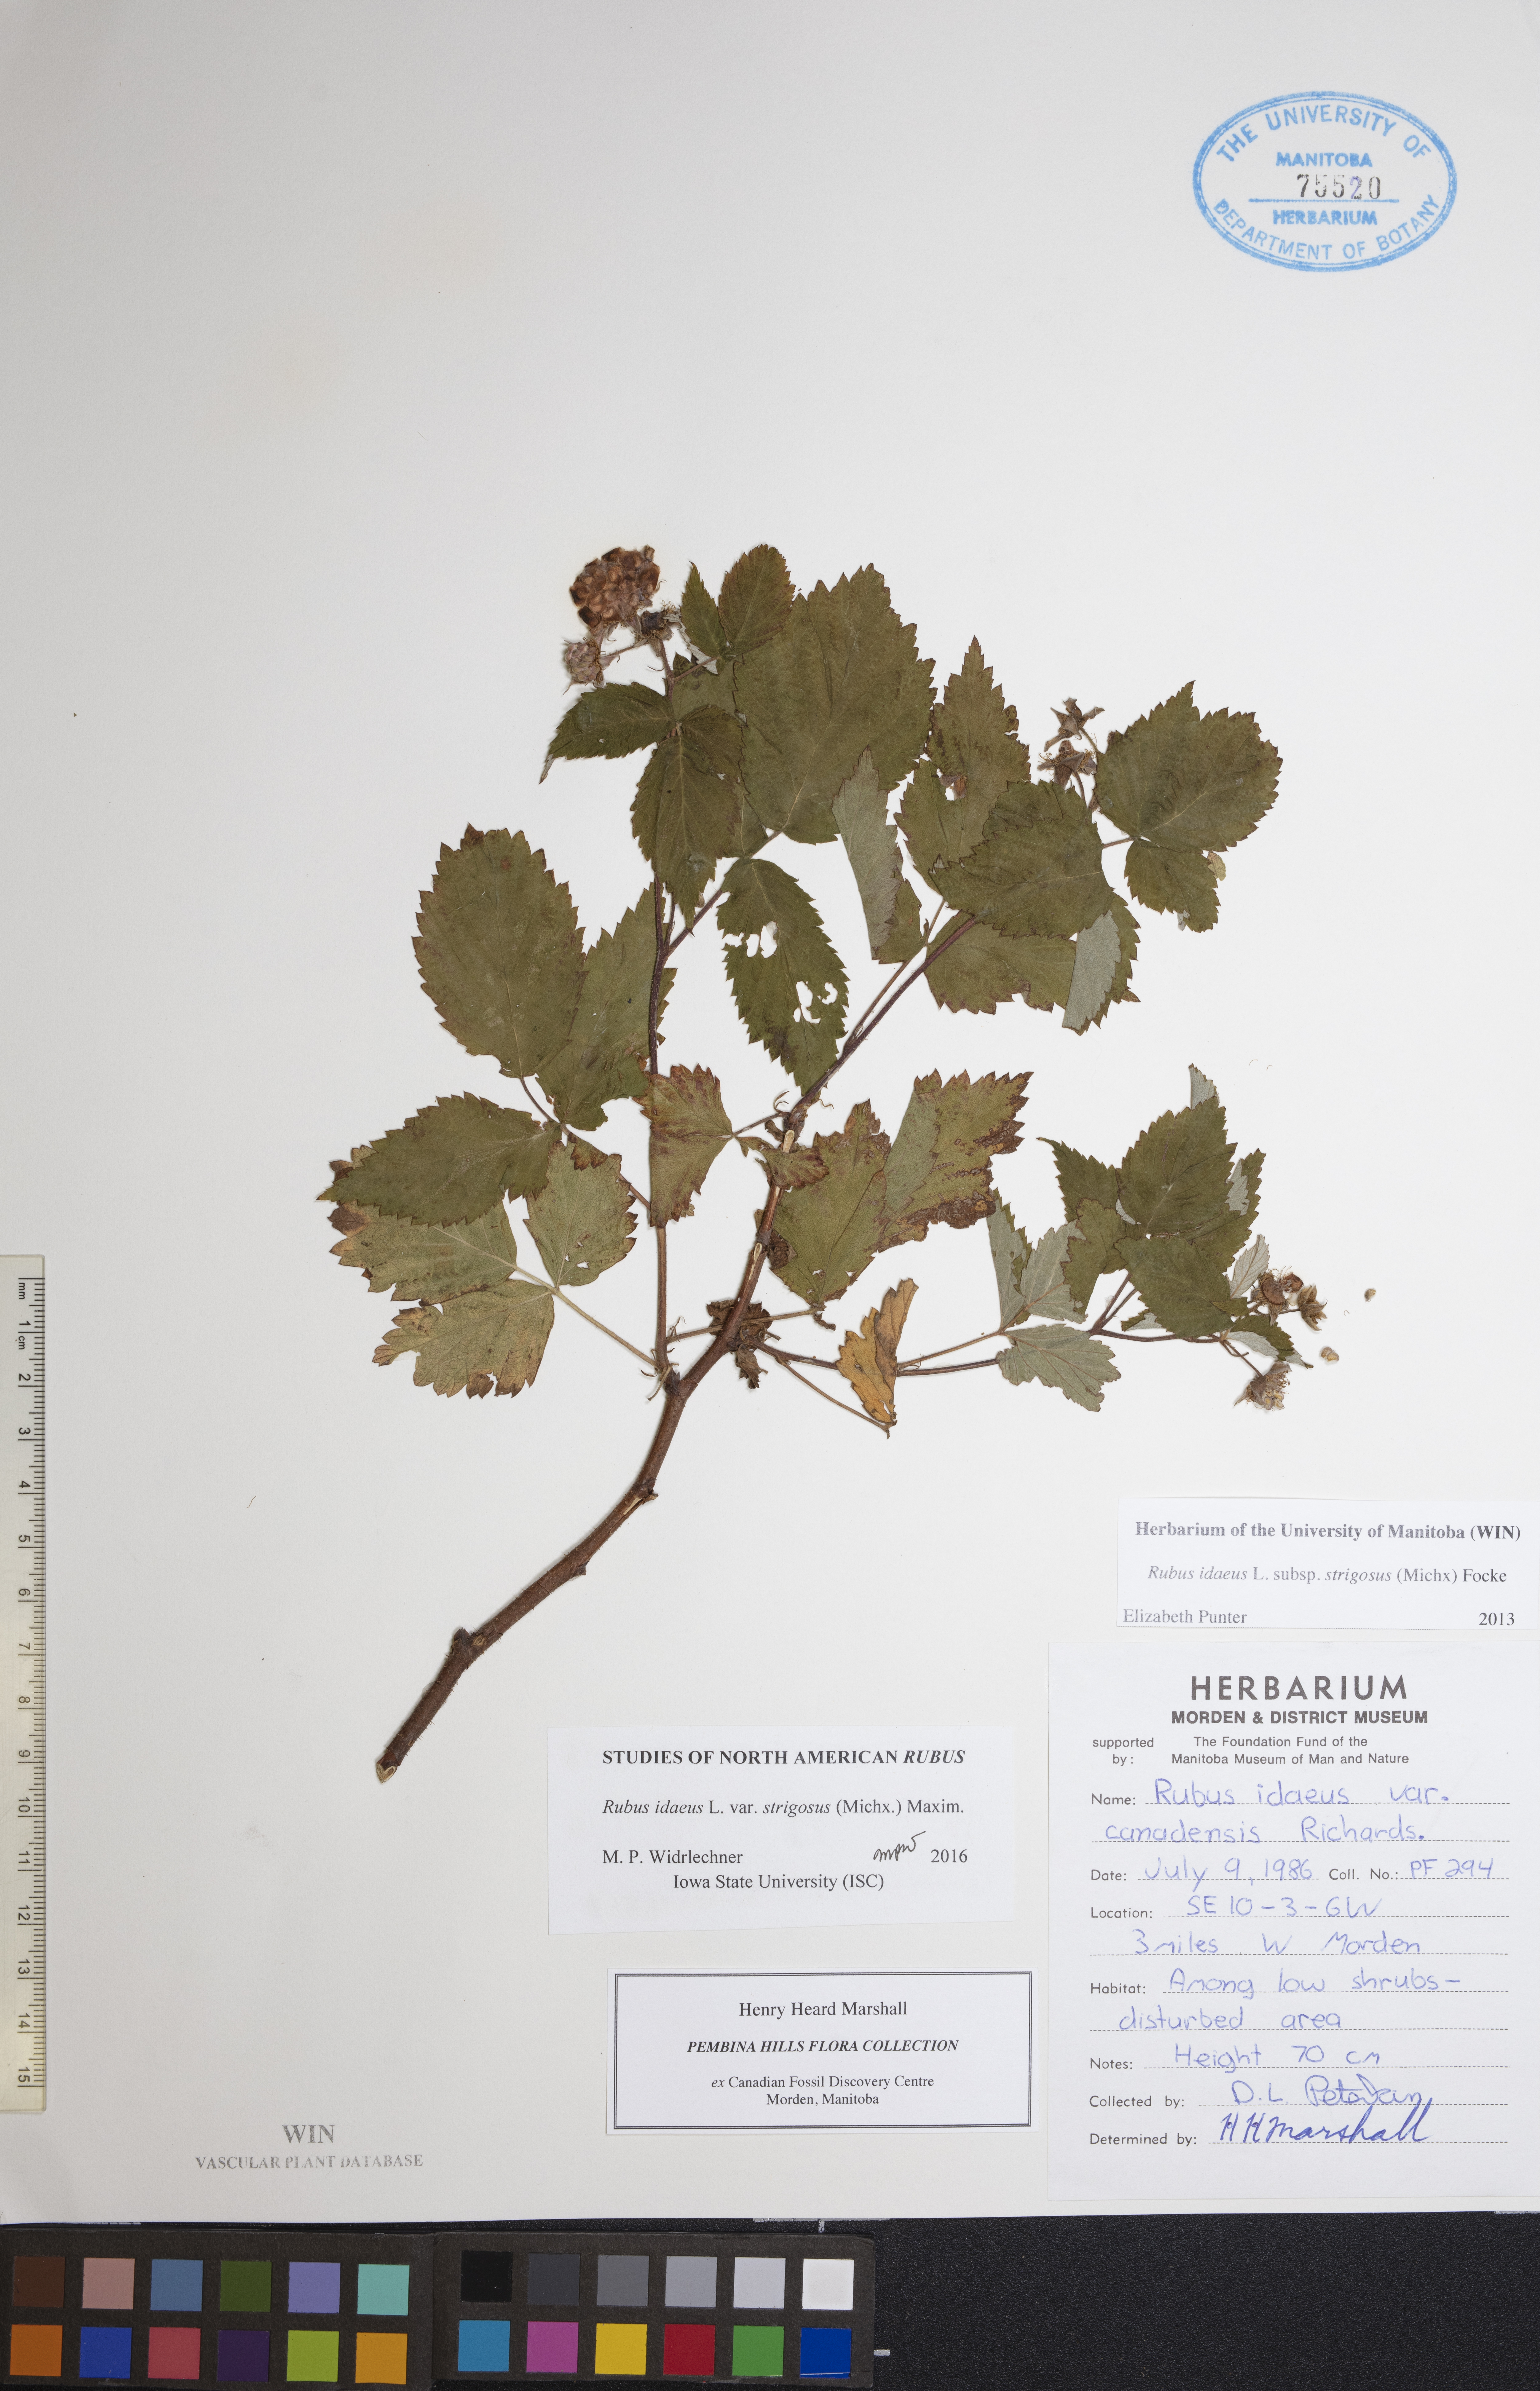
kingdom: Plantae
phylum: Tracheophyta
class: Magnoliopsida
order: Rosales
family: Rosaceae
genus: Rubus
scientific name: Rubus idaeus
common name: Raspberry
